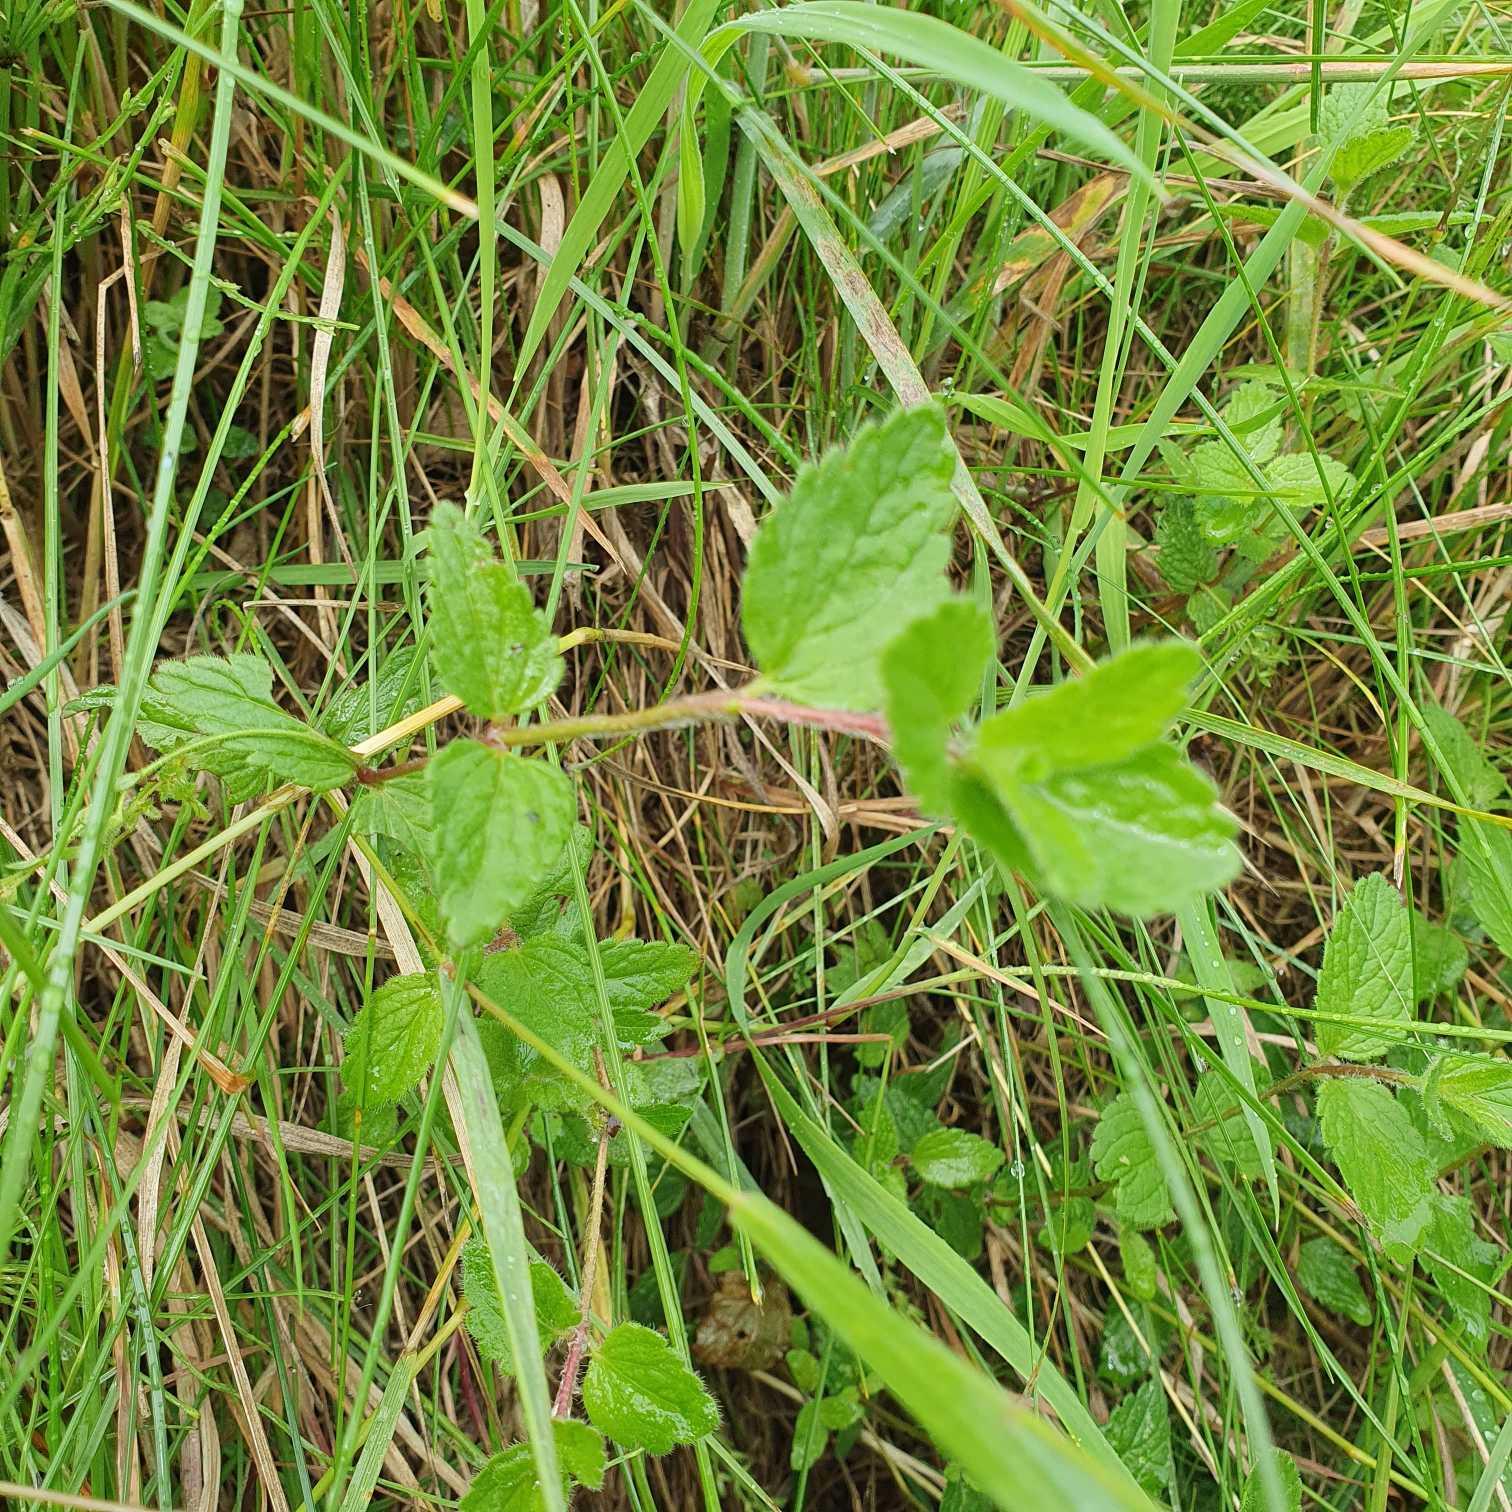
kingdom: Plantae
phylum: Tracheophyta
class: Magnoliopsida
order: Lamiales
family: Plantaginaceae
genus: Veronica
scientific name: Veronica chamaedrys
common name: Tveskægget ærenpris
